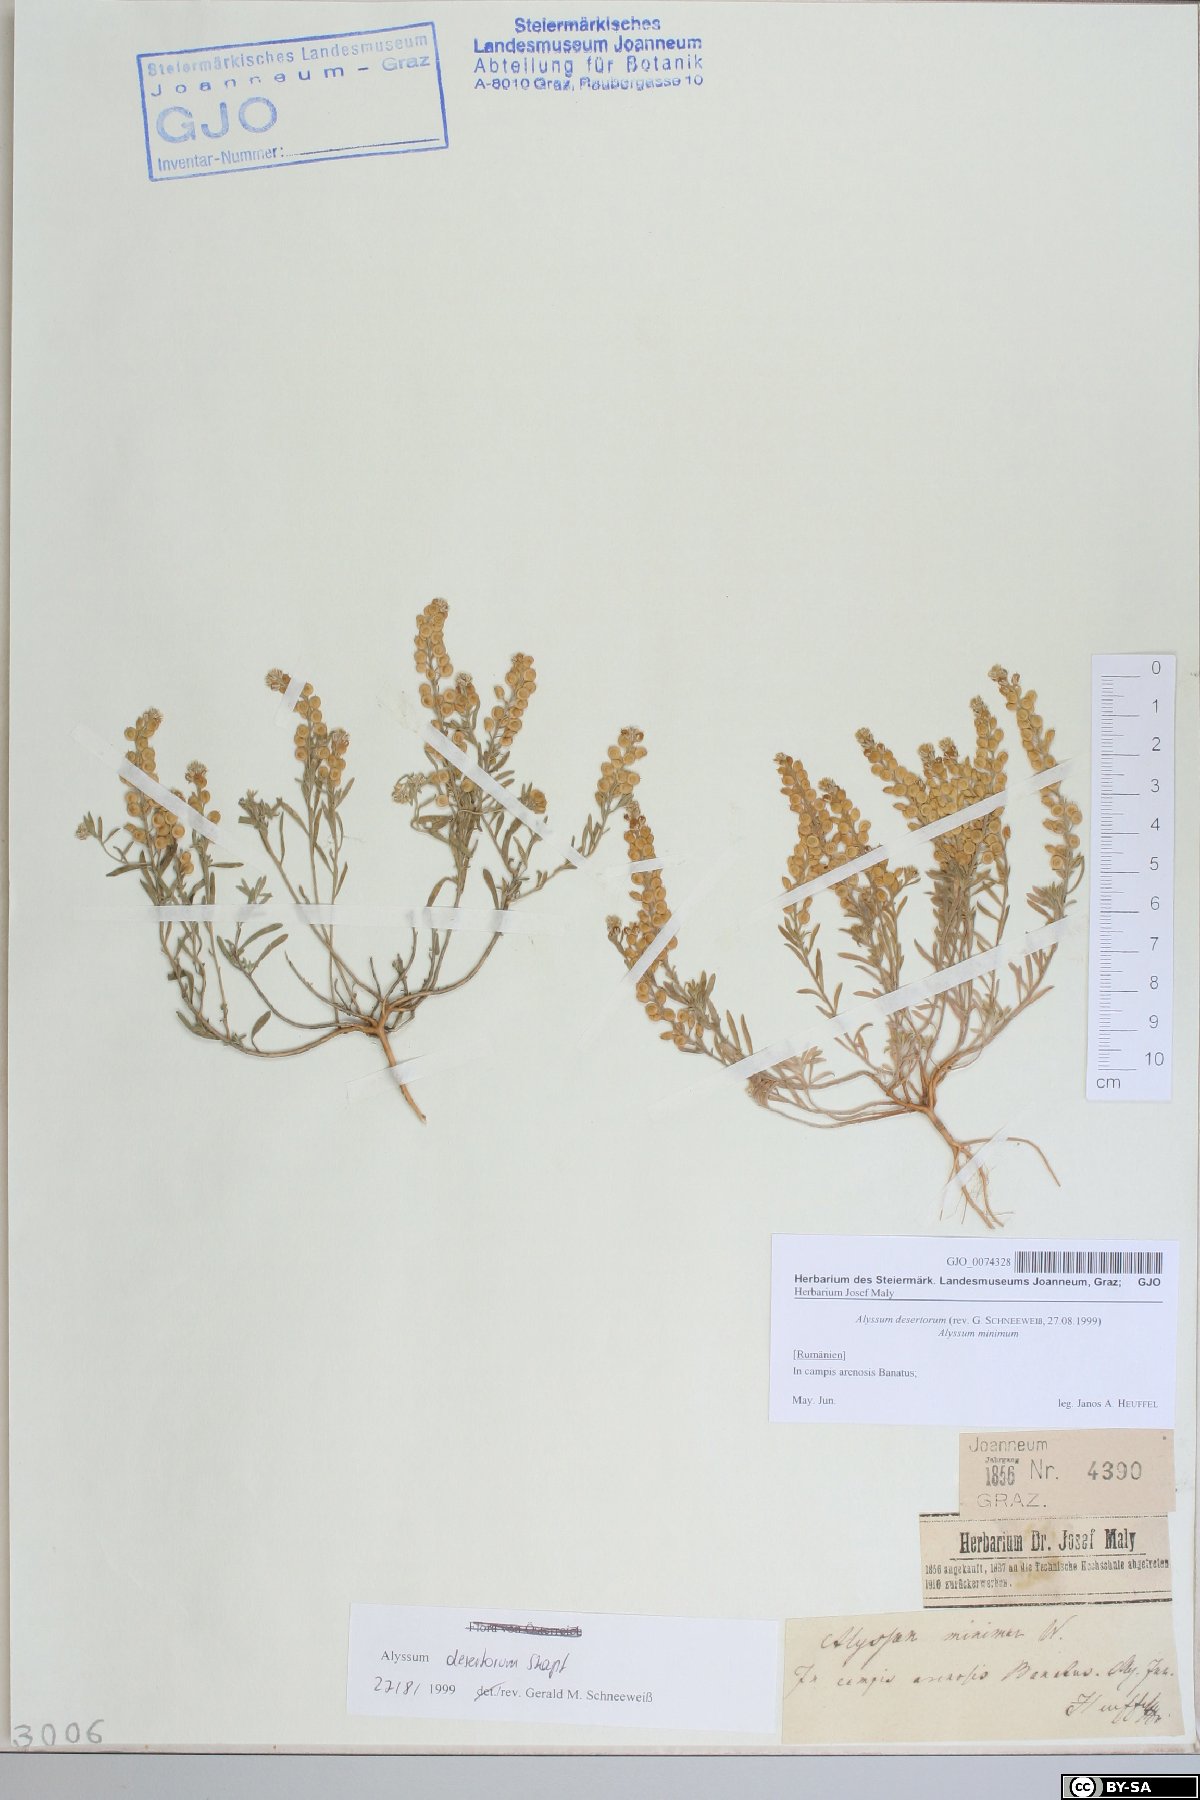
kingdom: Plantae
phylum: Tracheophyta
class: Magnoliopsida
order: Brassicales
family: Brassicaceae
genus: Alyssum
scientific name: Alyssum turkestanicum
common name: Desert alyssum
